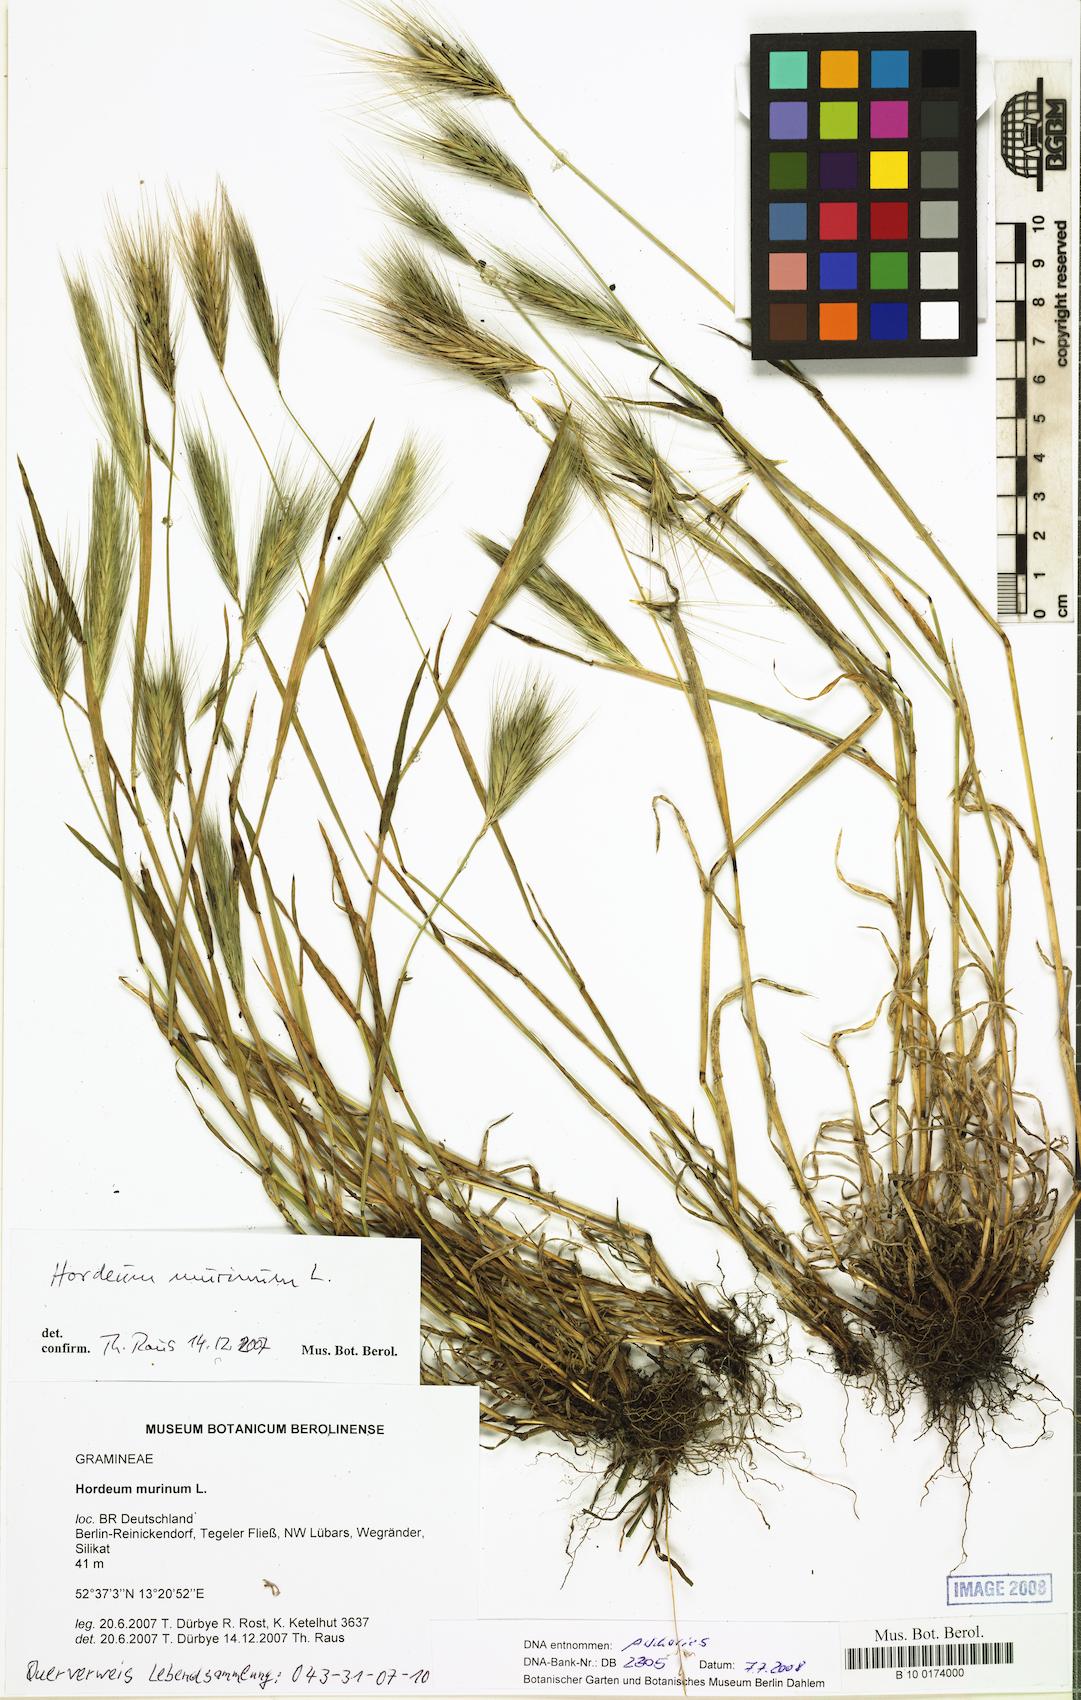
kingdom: Plantae
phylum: Tracheophyta
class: Liliopsida
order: Poales
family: Poaceae
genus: Hordeum
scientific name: Hordeum murinum
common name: Wall barley
